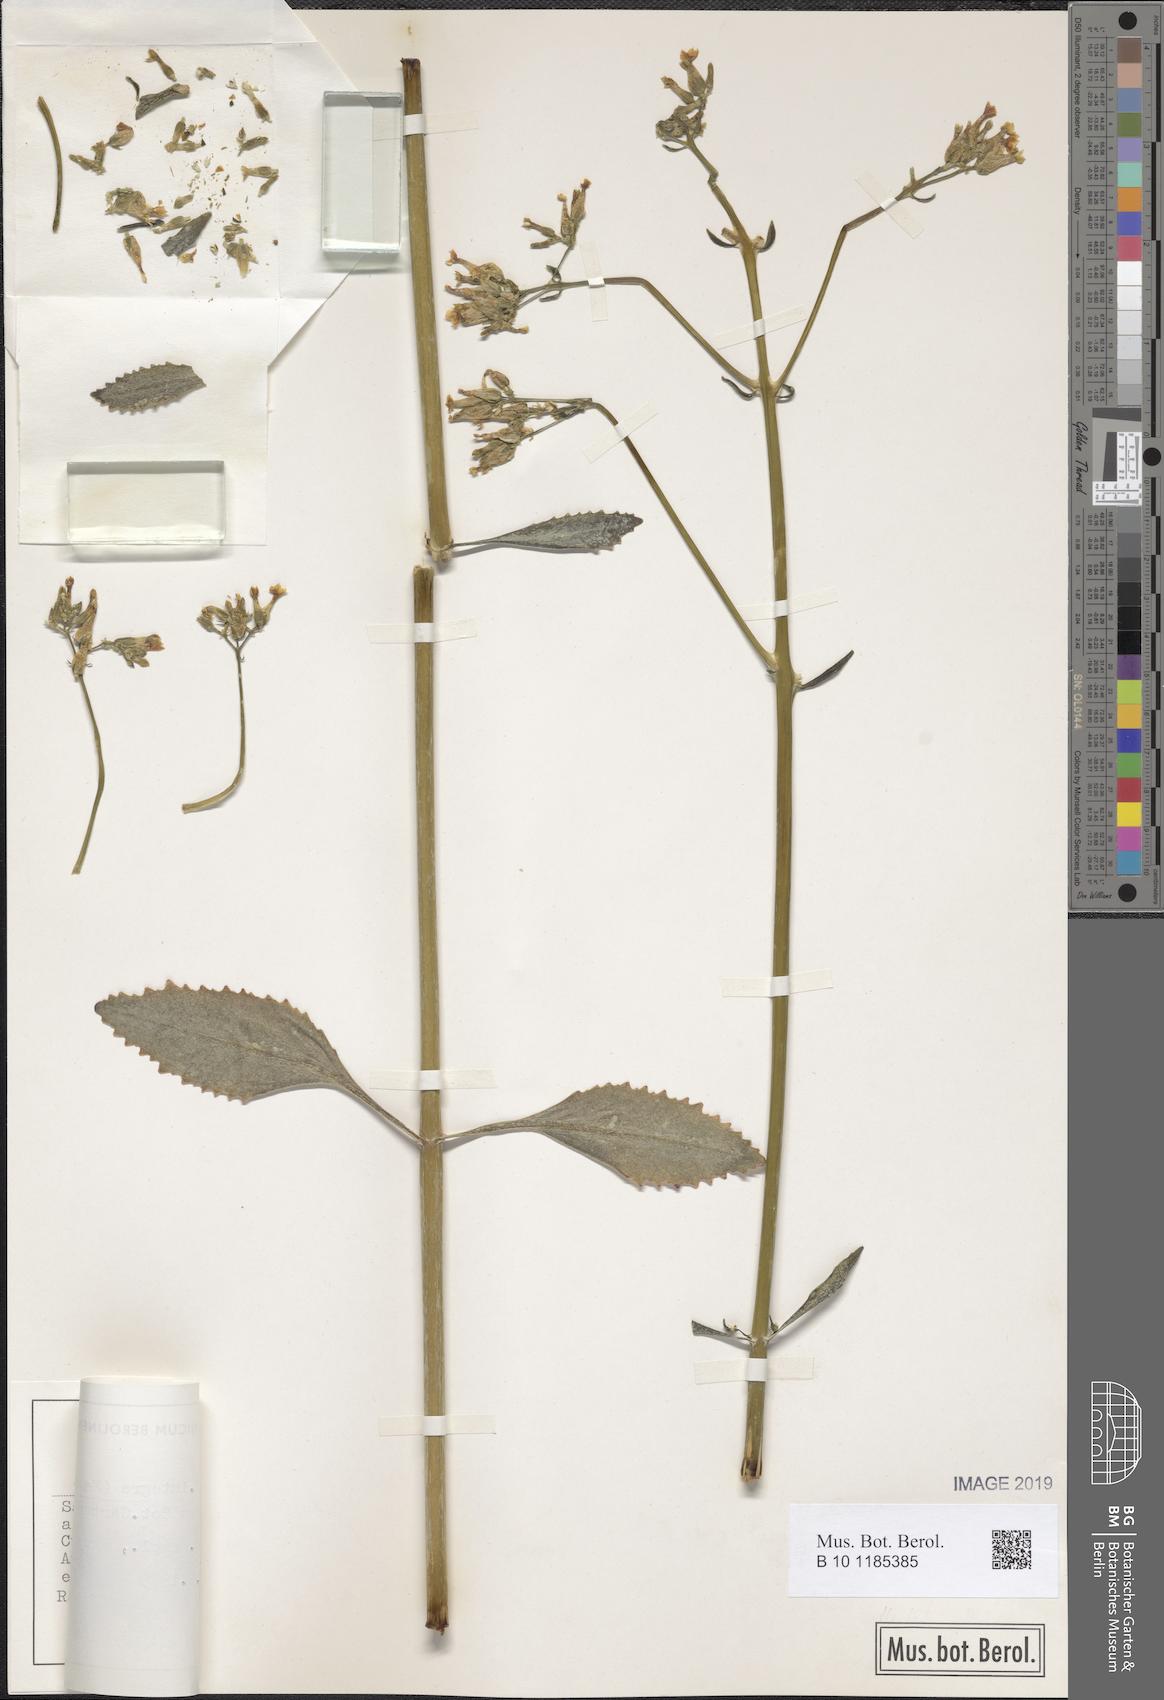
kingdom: Plantae
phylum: Tracheophyta
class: Magnoliopsida
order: Saxifragales
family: Crassulaceae
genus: Kalanchoe
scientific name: Kalanchoe densiflora
